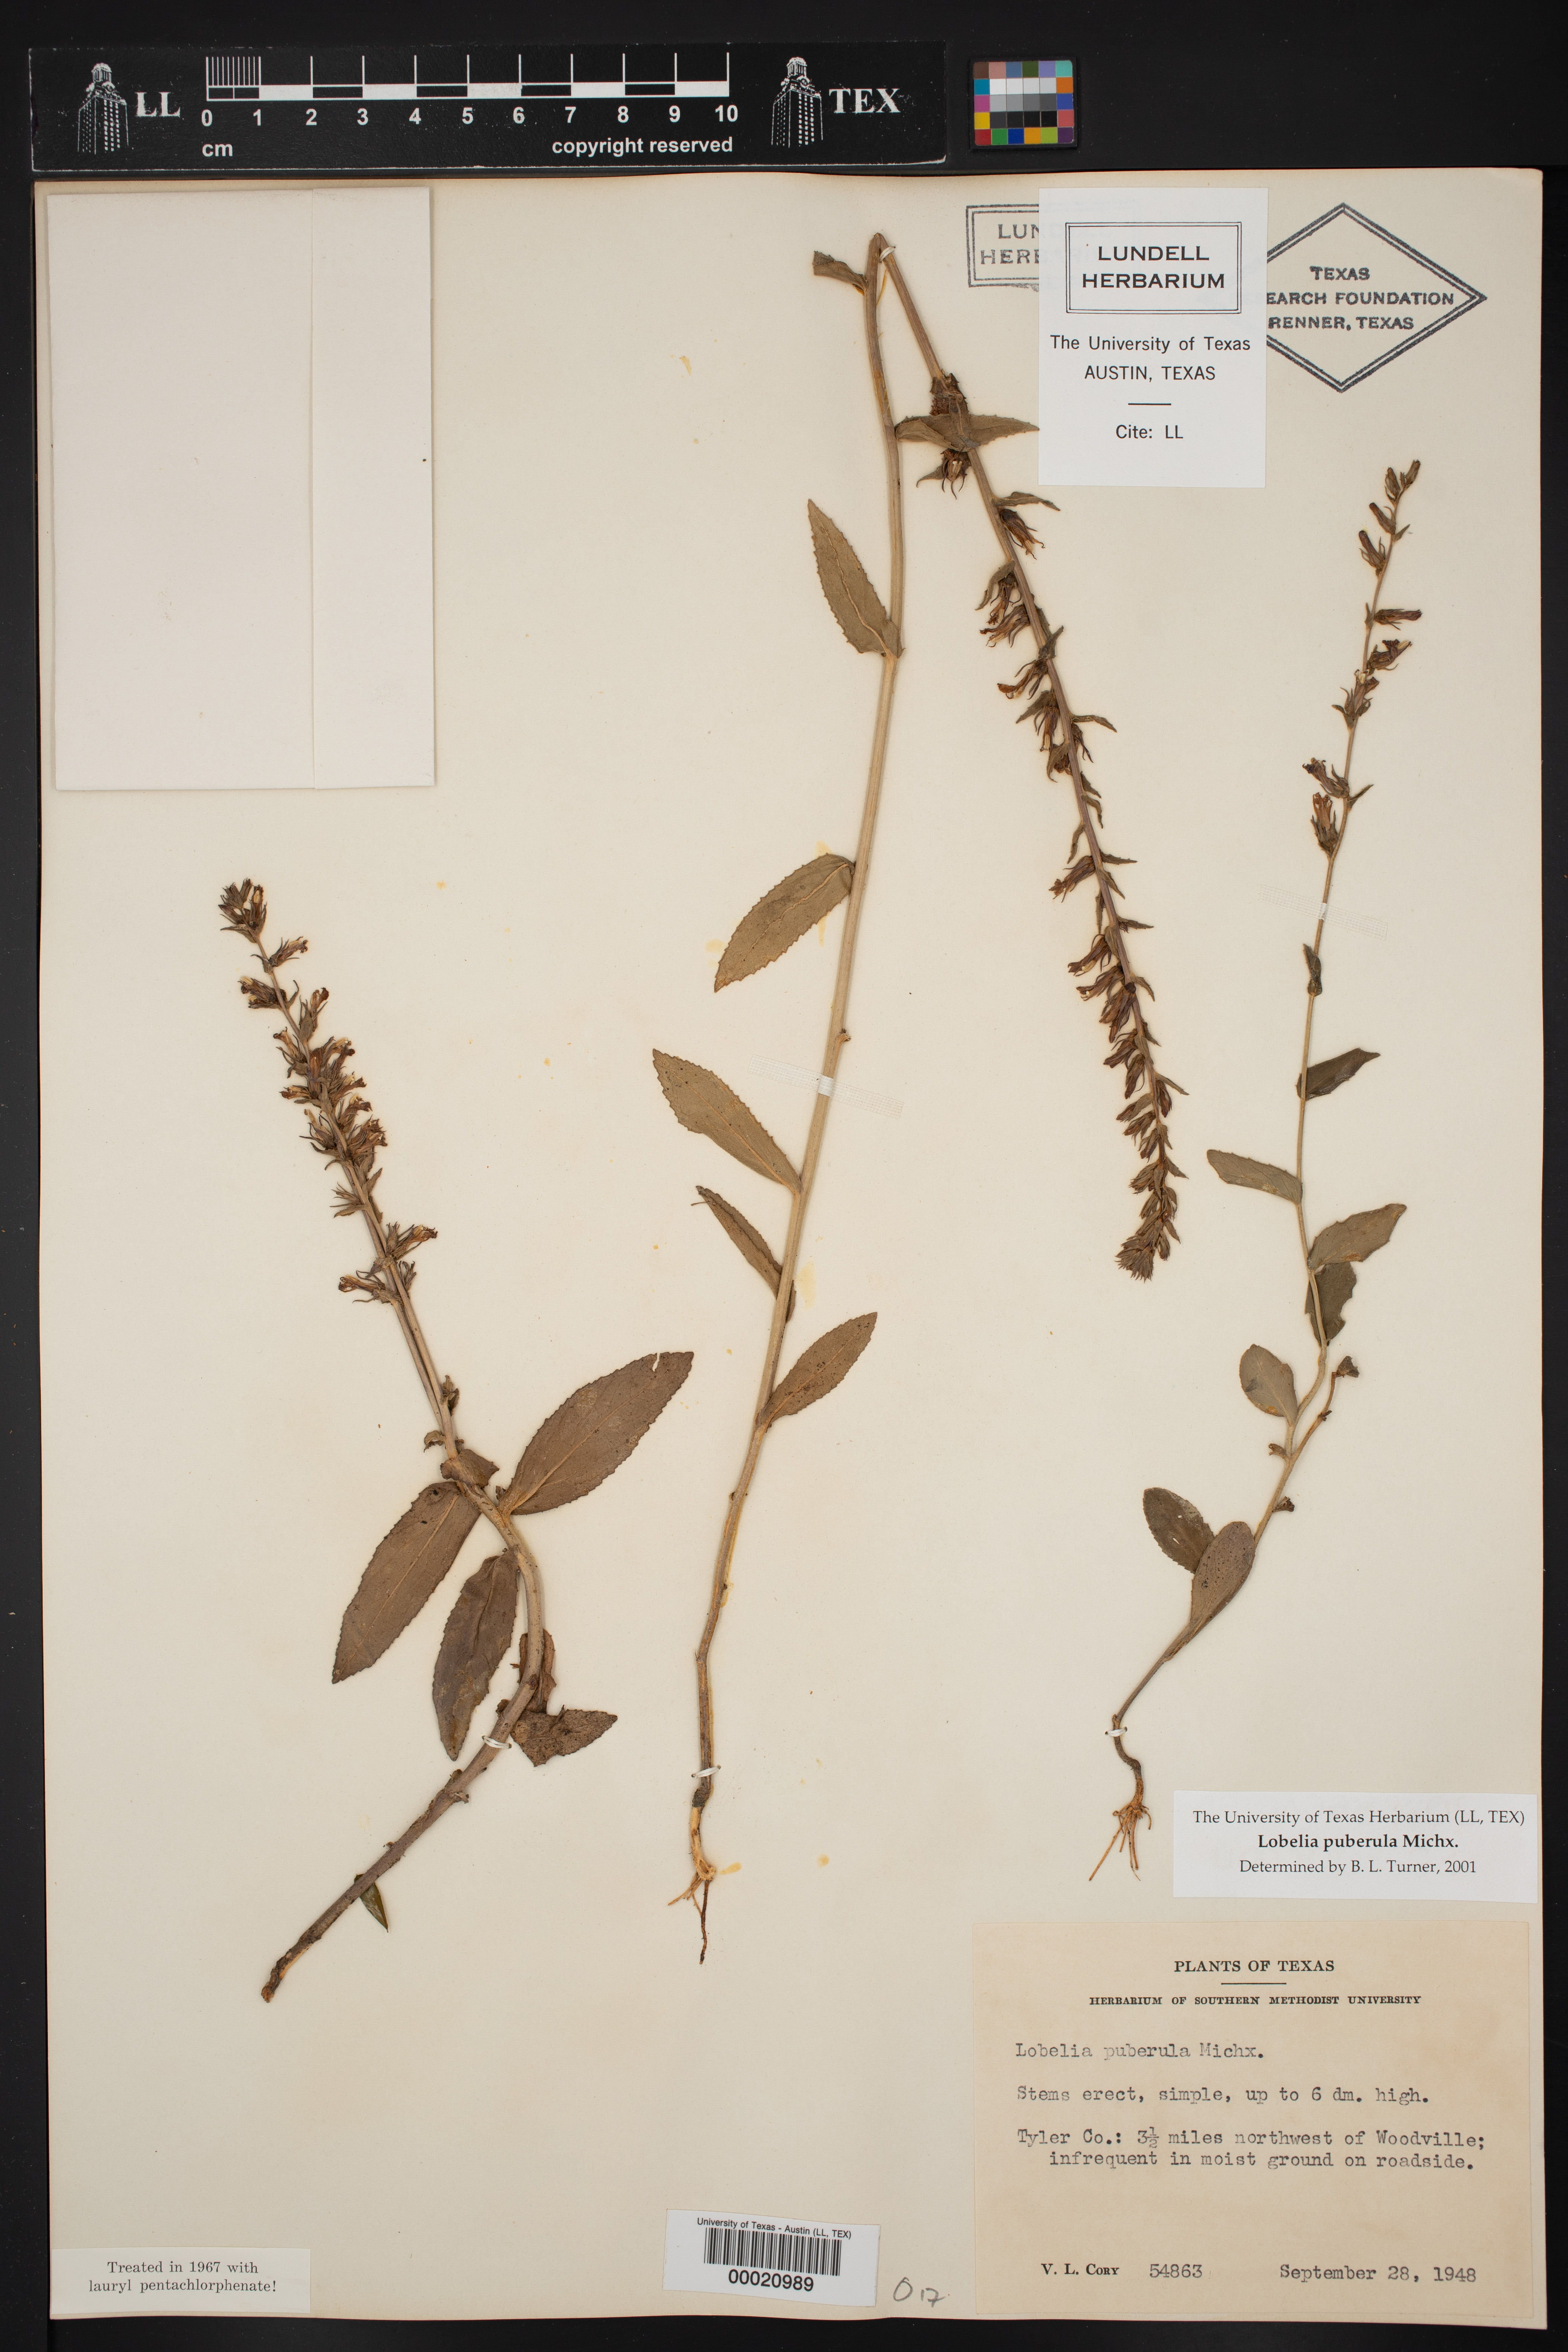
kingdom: Plantae
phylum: Tracheophyta
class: Magnoliopsida
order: Asterales
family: Campanulaceae
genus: Lobelia
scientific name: Lobelia puberula
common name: Purple dewdrop
